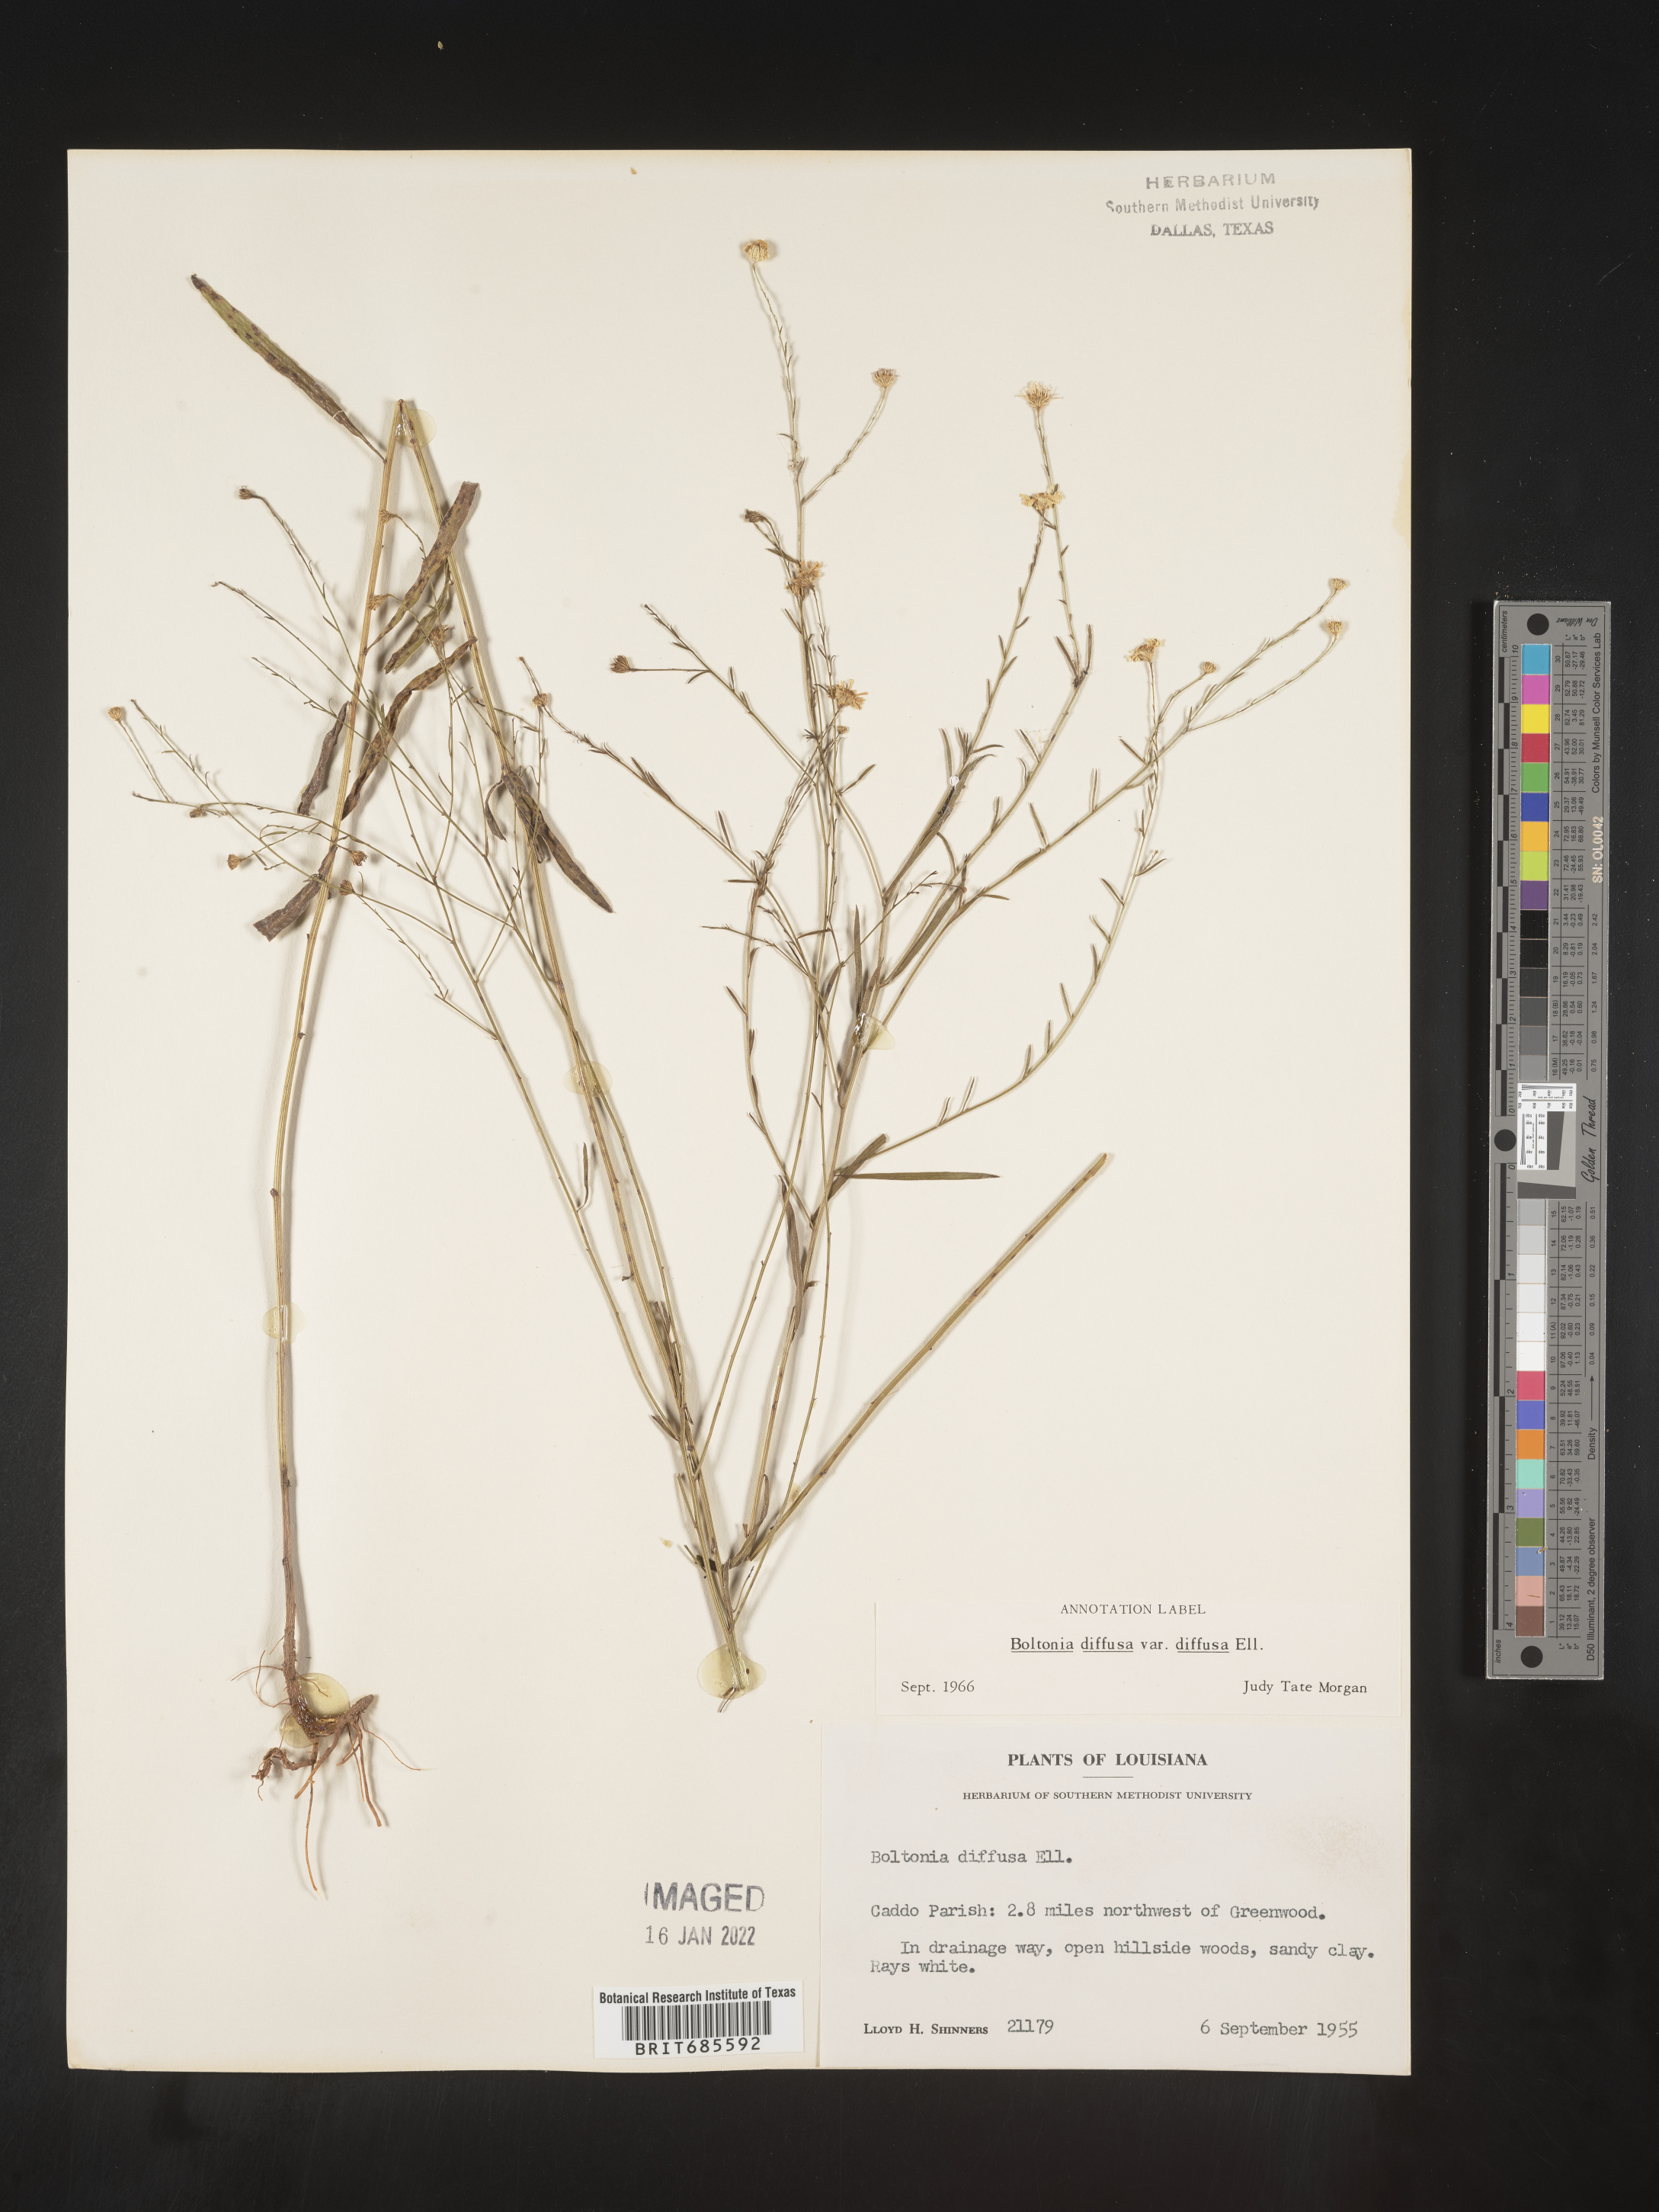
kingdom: Plantae
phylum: Tracheophyta
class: Magnoliopsida
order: Asterales
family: Asteraceae
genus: Boltonia
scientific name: Boltonia diffusa
